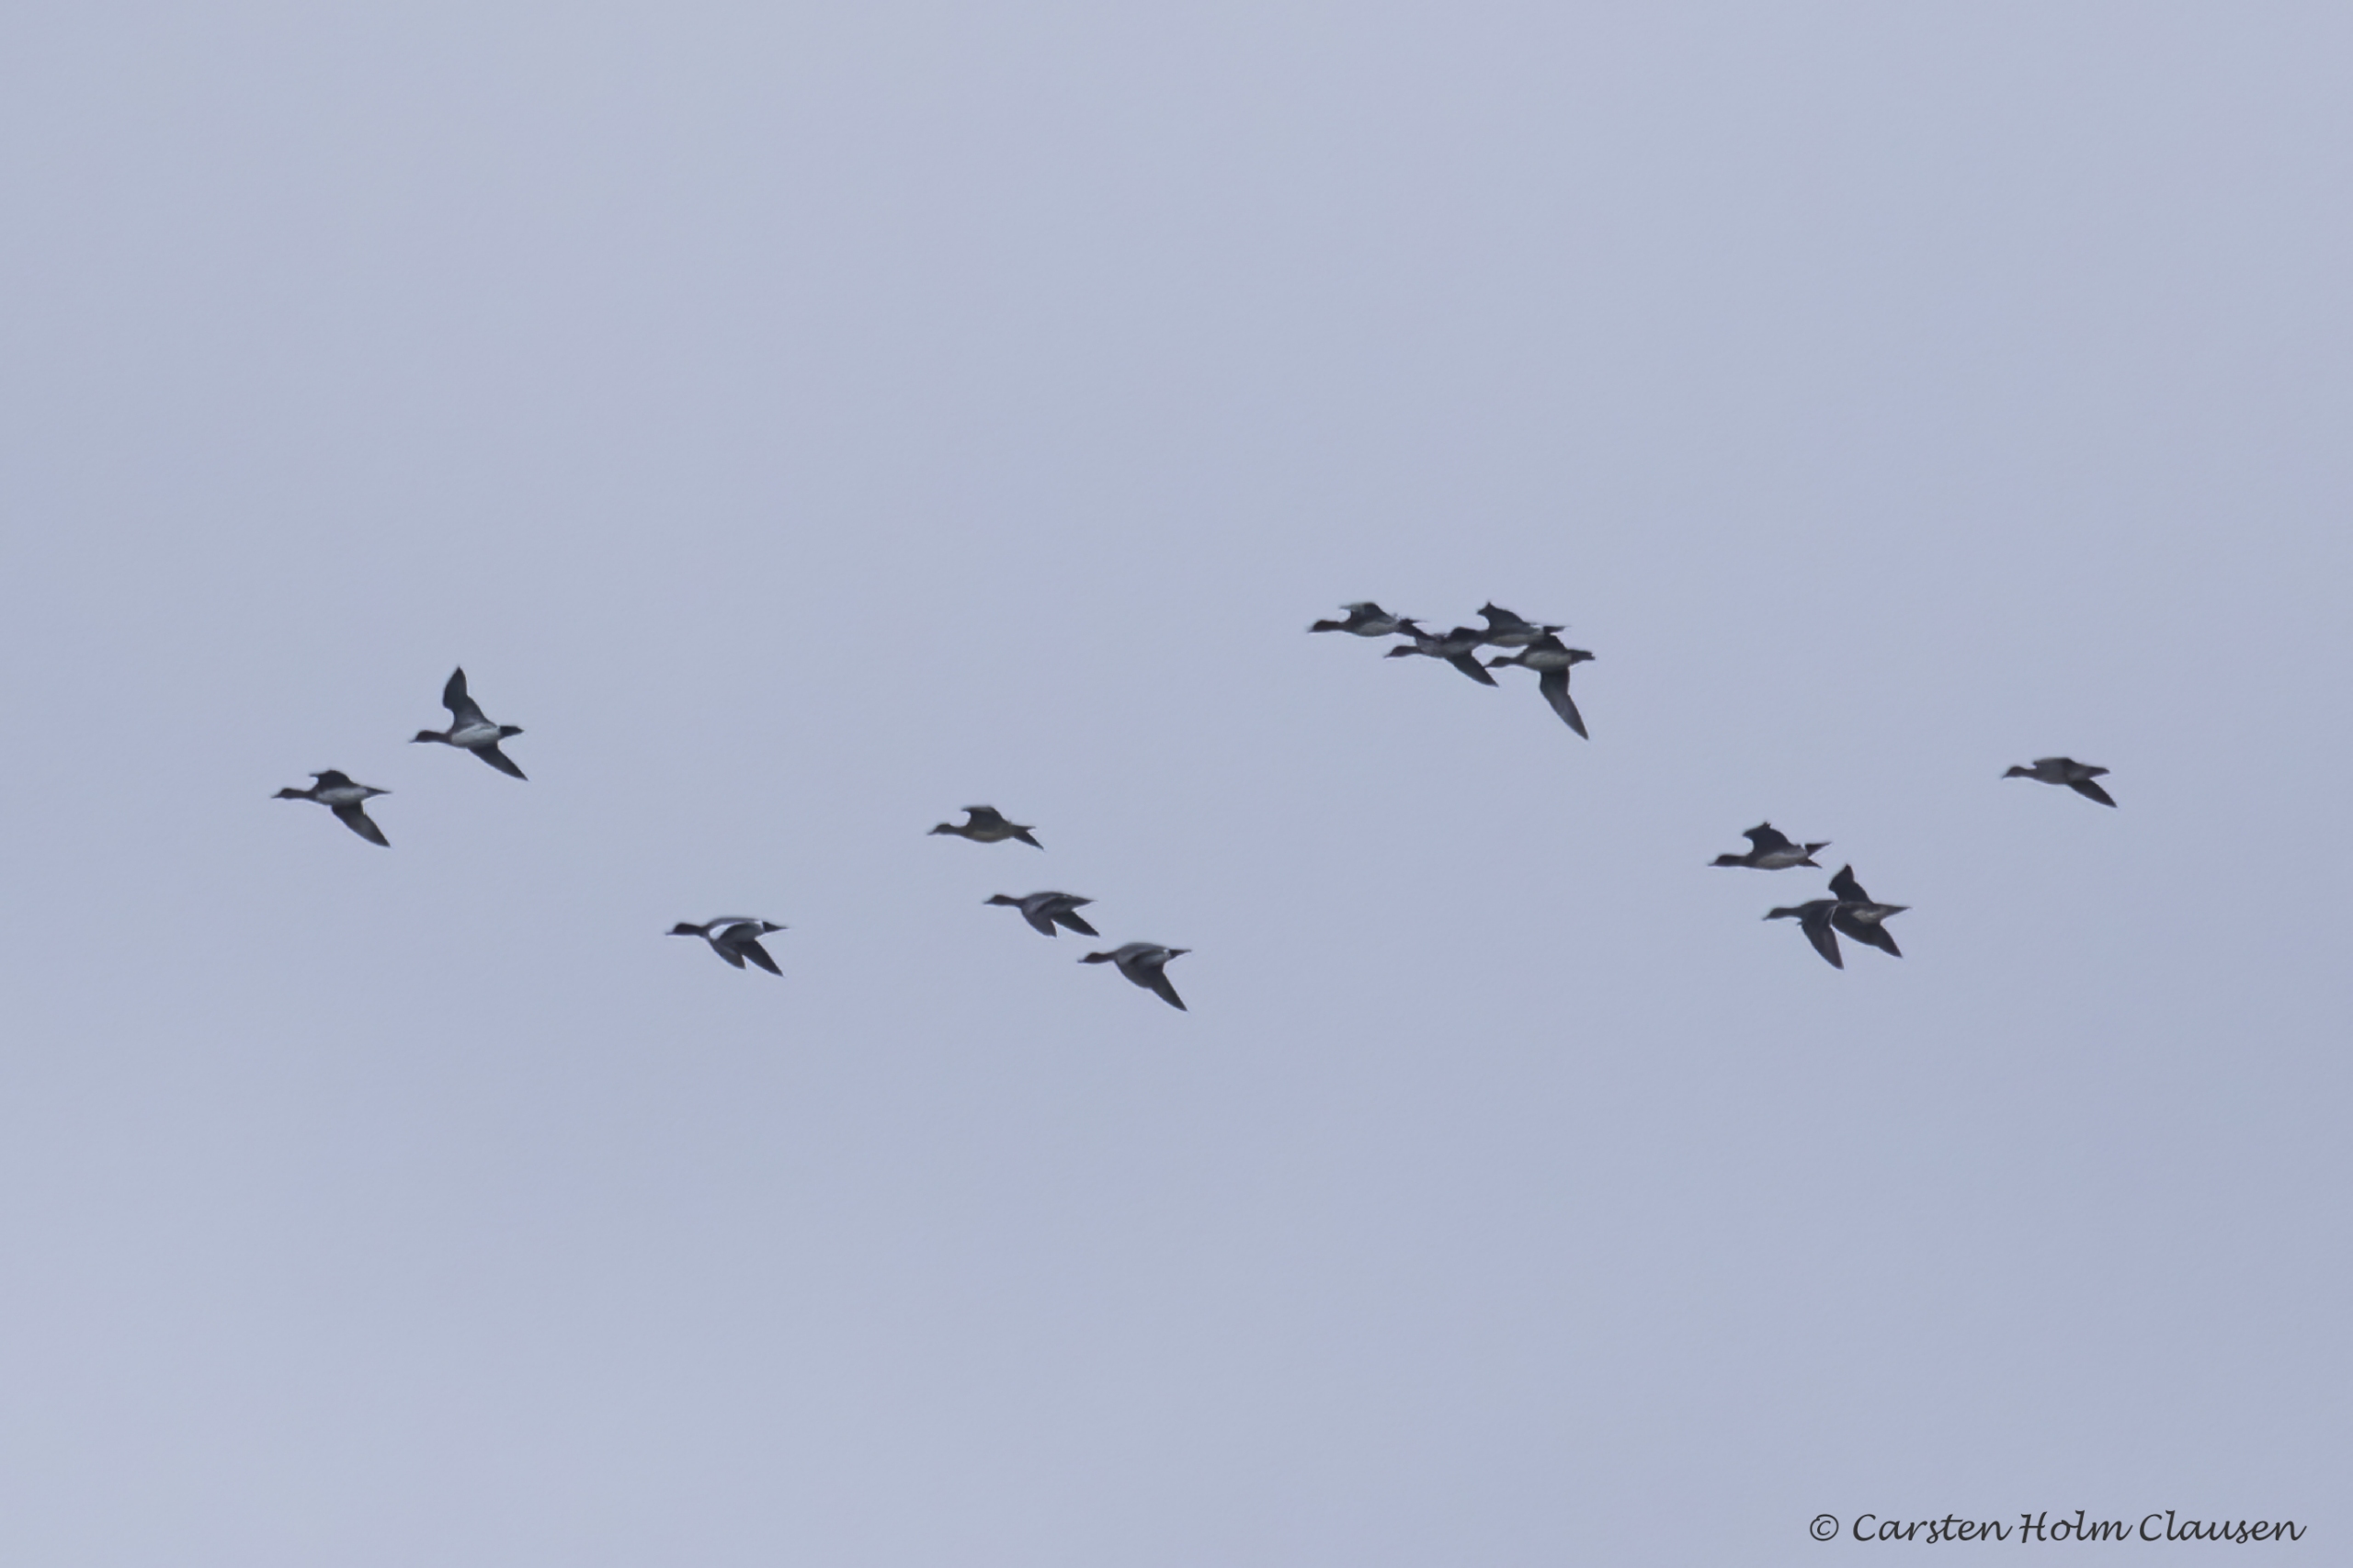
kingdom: Animalia
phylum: Chordata
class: Aves
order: Anseriformes
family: Anatidae
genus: Mareca
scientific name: Mareca penelope
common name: Pibeand
